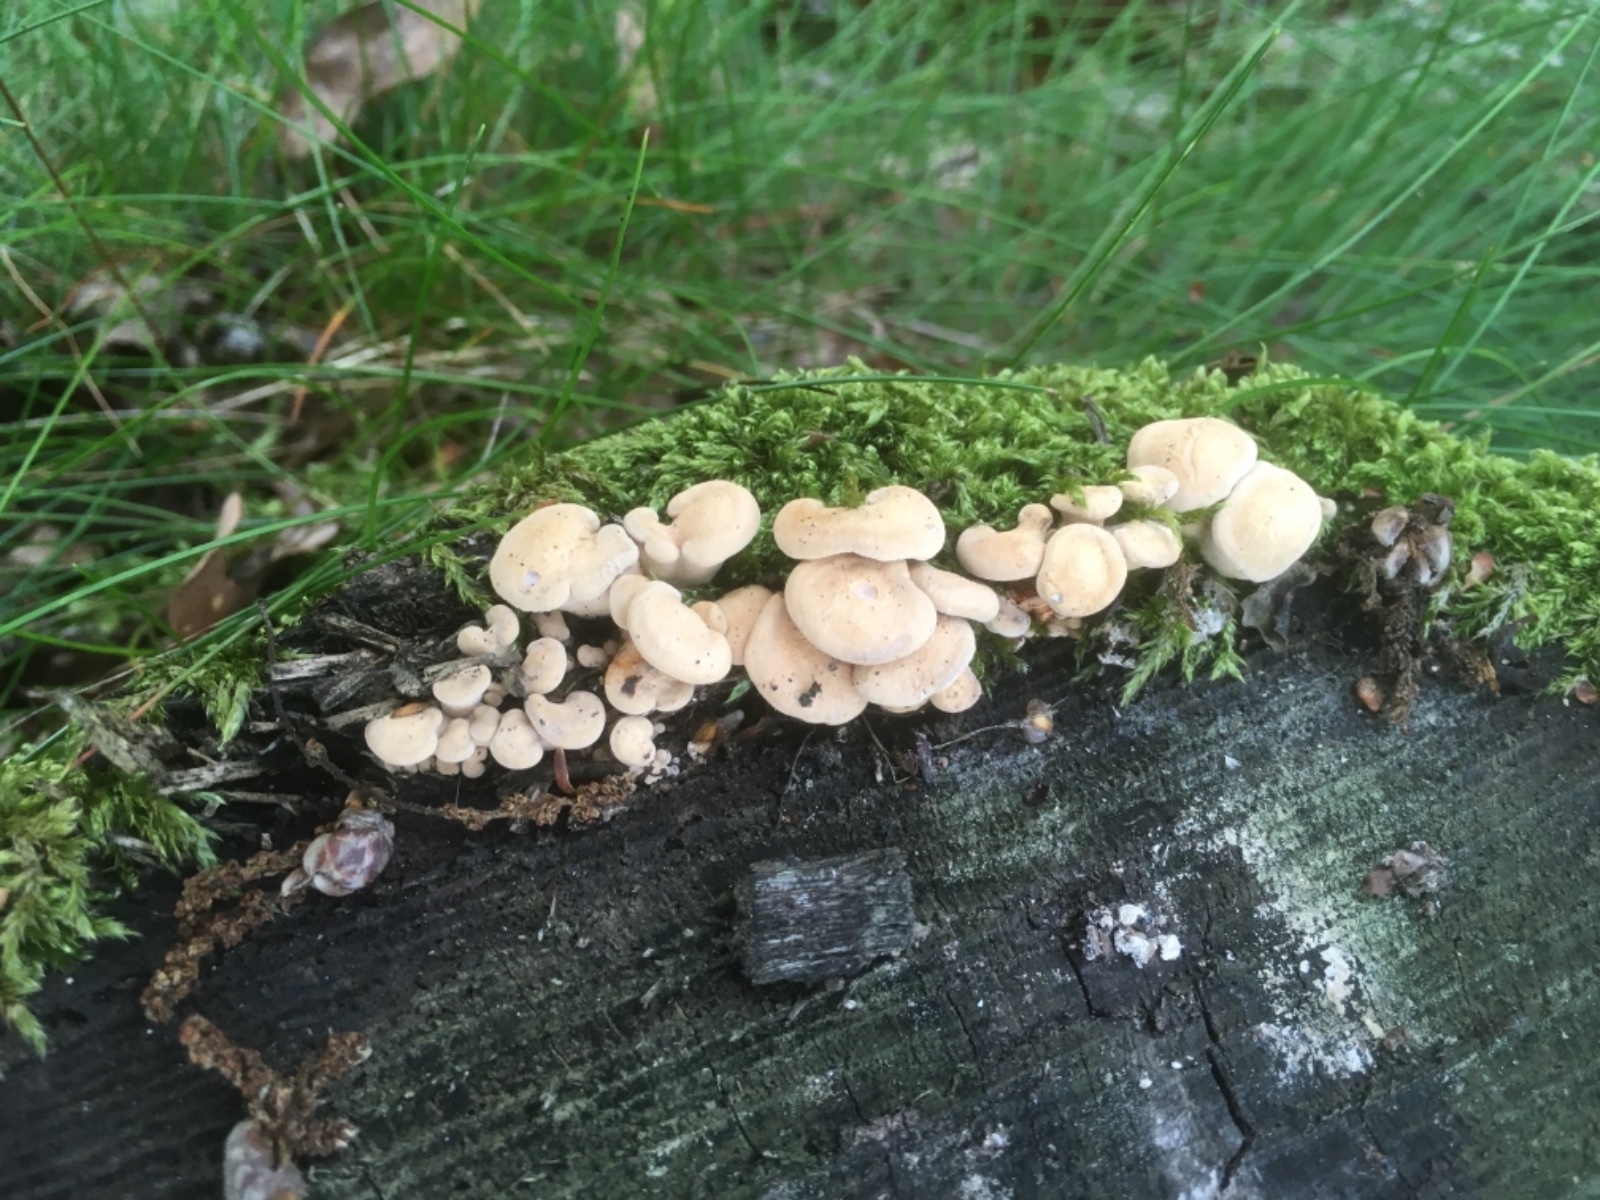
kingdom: Fungi
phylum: Basidiomycota
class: Agaricomycetes
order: Agaricales
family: Mycenaceae
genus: Panellus
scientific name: Panellus stipticus
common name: kliddet epaulethat
